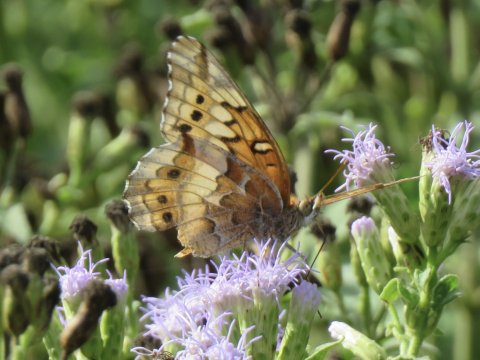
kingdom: Animalia
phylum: Arthropoda
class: Insecta
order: Lepidoptera
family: Nymphalidae
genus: Euptoieta
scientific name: Euptoieta claudia
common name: Variegated Fritillary
